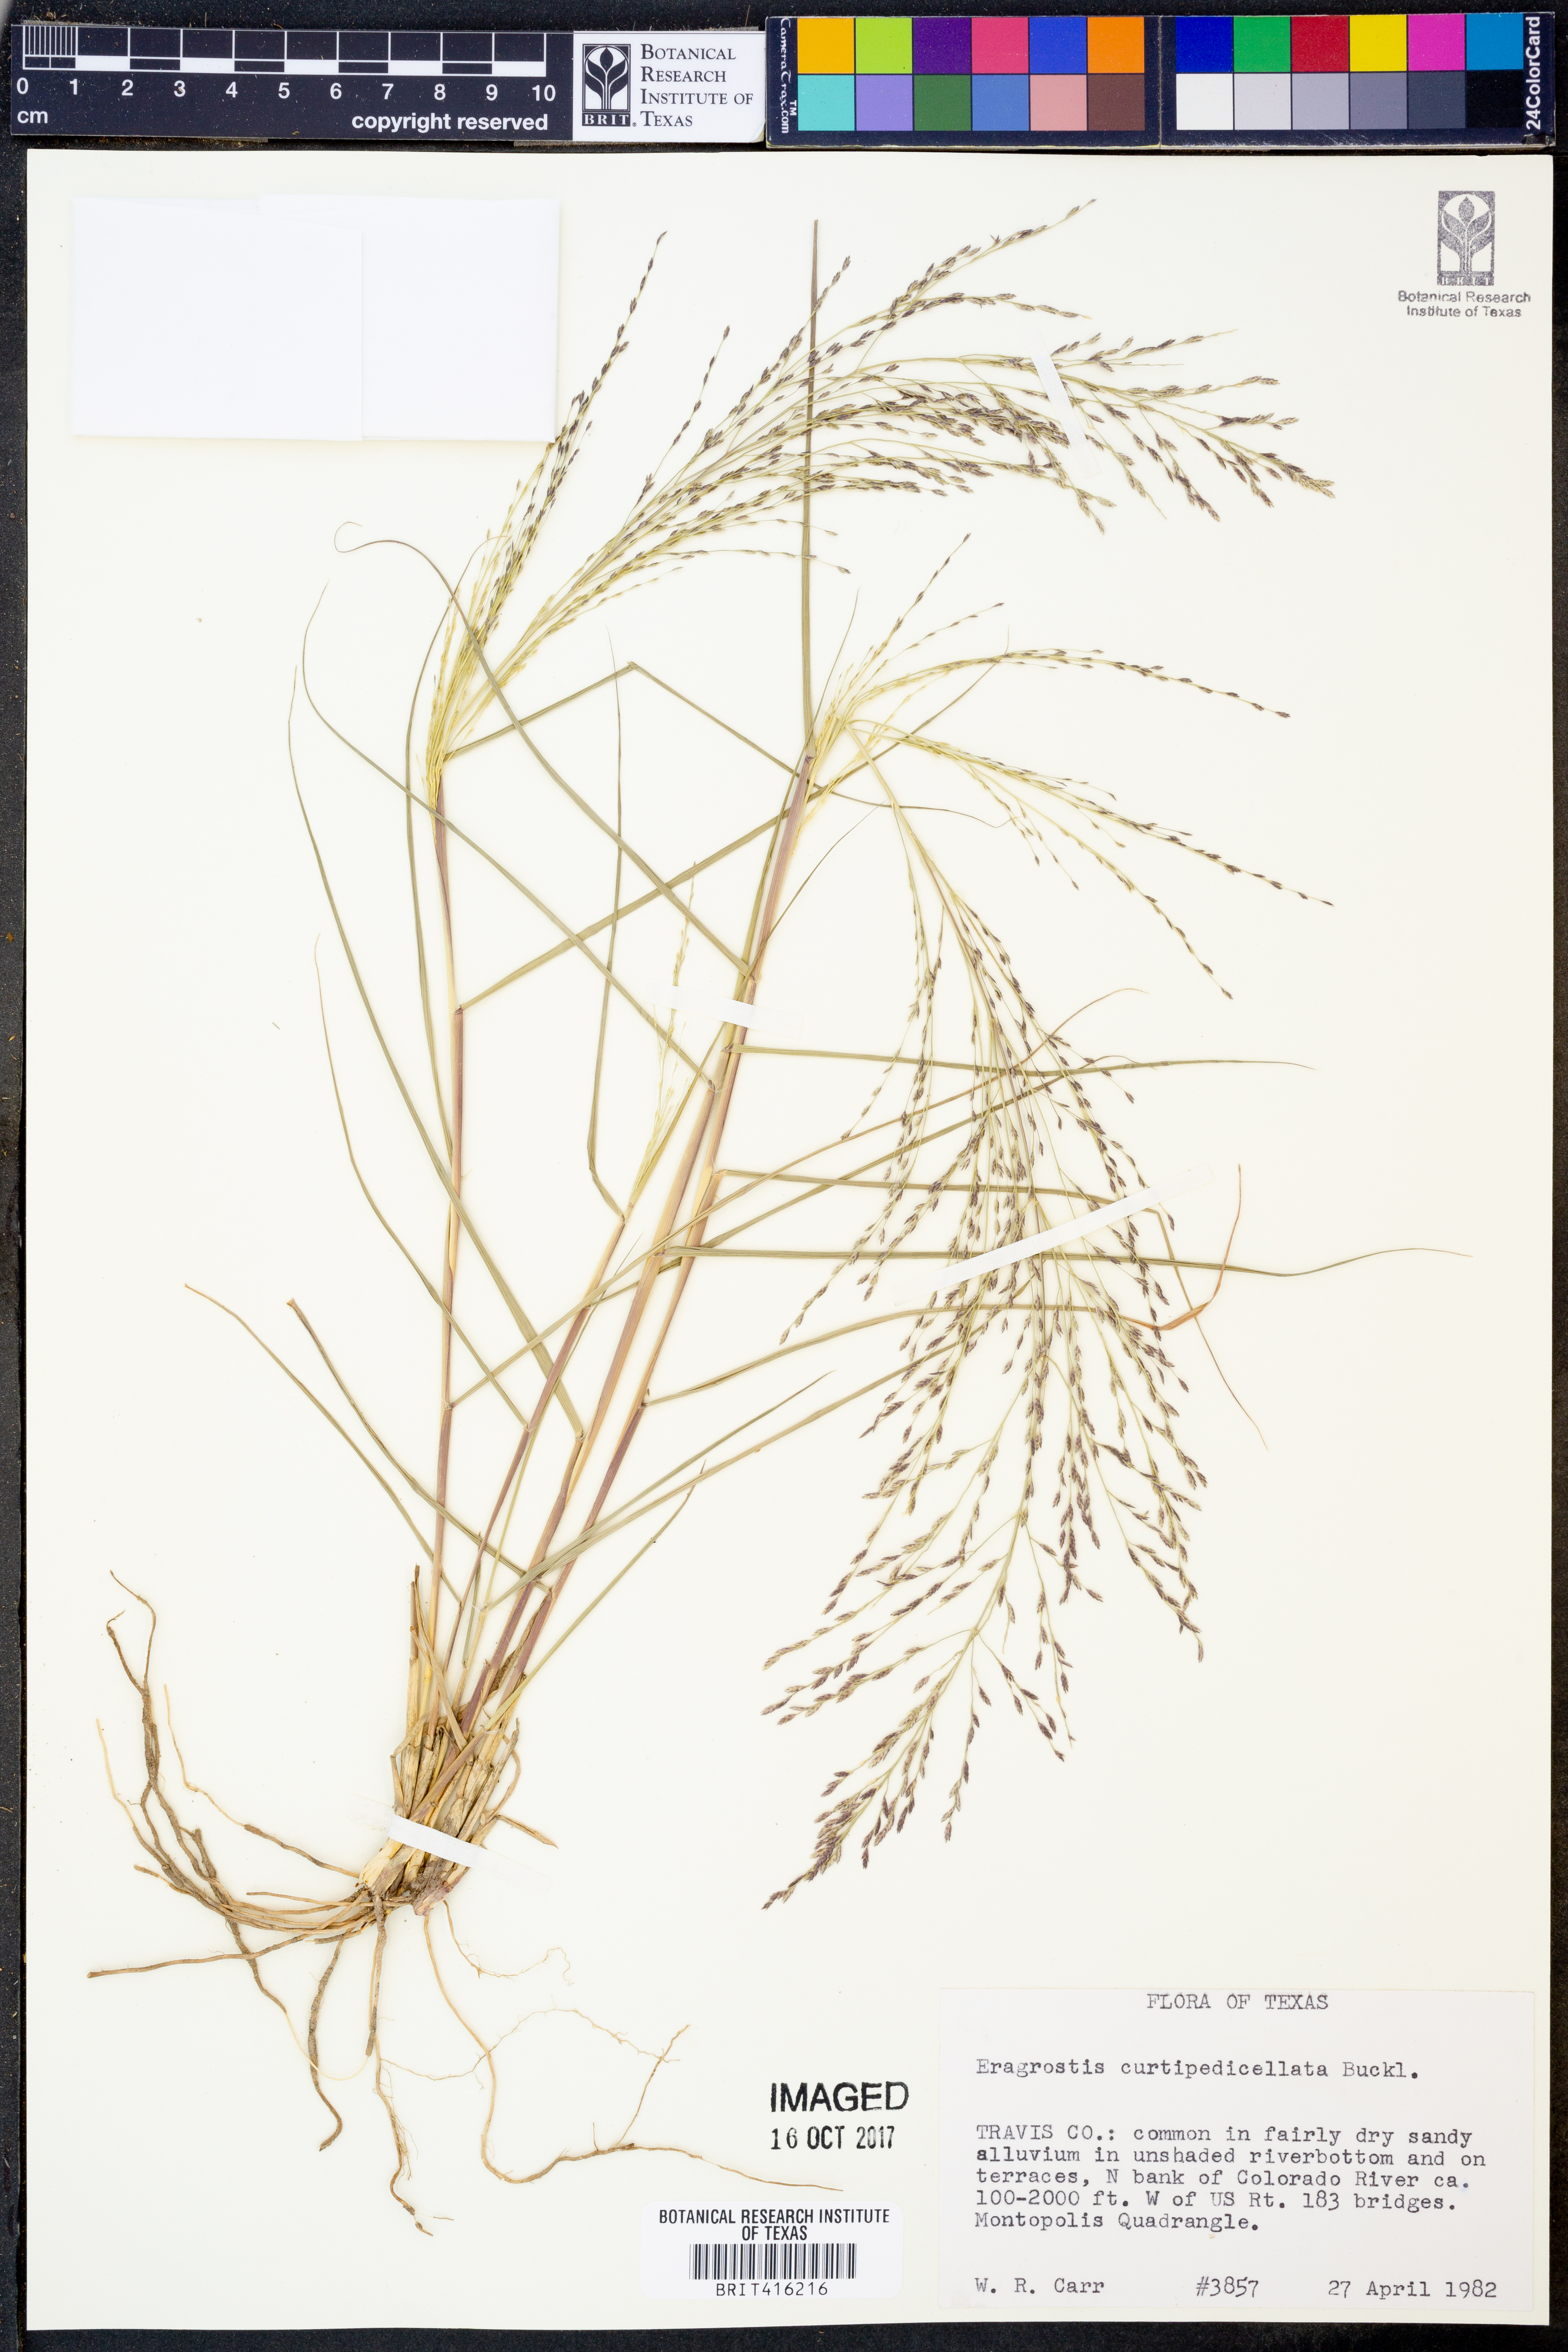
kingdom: Plantae
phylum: Tracheophyta
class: Liliopsida
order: Poales
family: Poaceae
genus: Eragrostis
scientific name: Eragrostis curtipedicellata
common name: Gummy love grass
